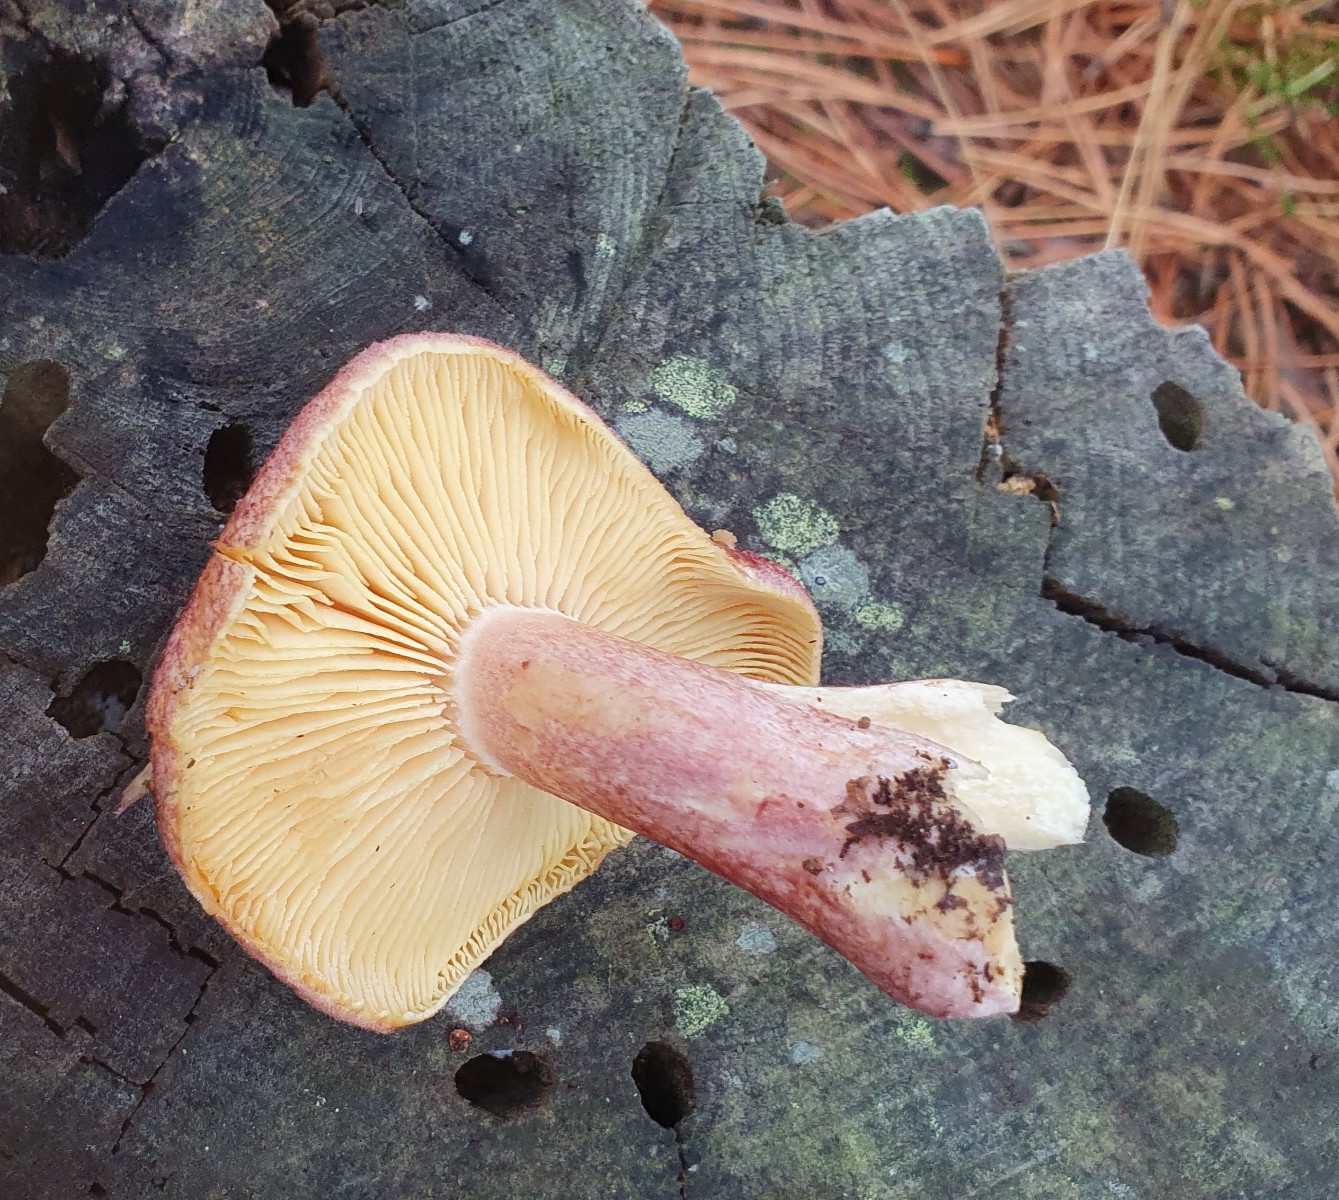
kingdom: Fungi
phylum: Basidiomycota
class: Agaricomycetes
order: Agaricales
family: Tricholomataceae
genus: Tricholomopsis
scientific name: Tricholomopsis rutilans
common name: purpur-væbnerhat
